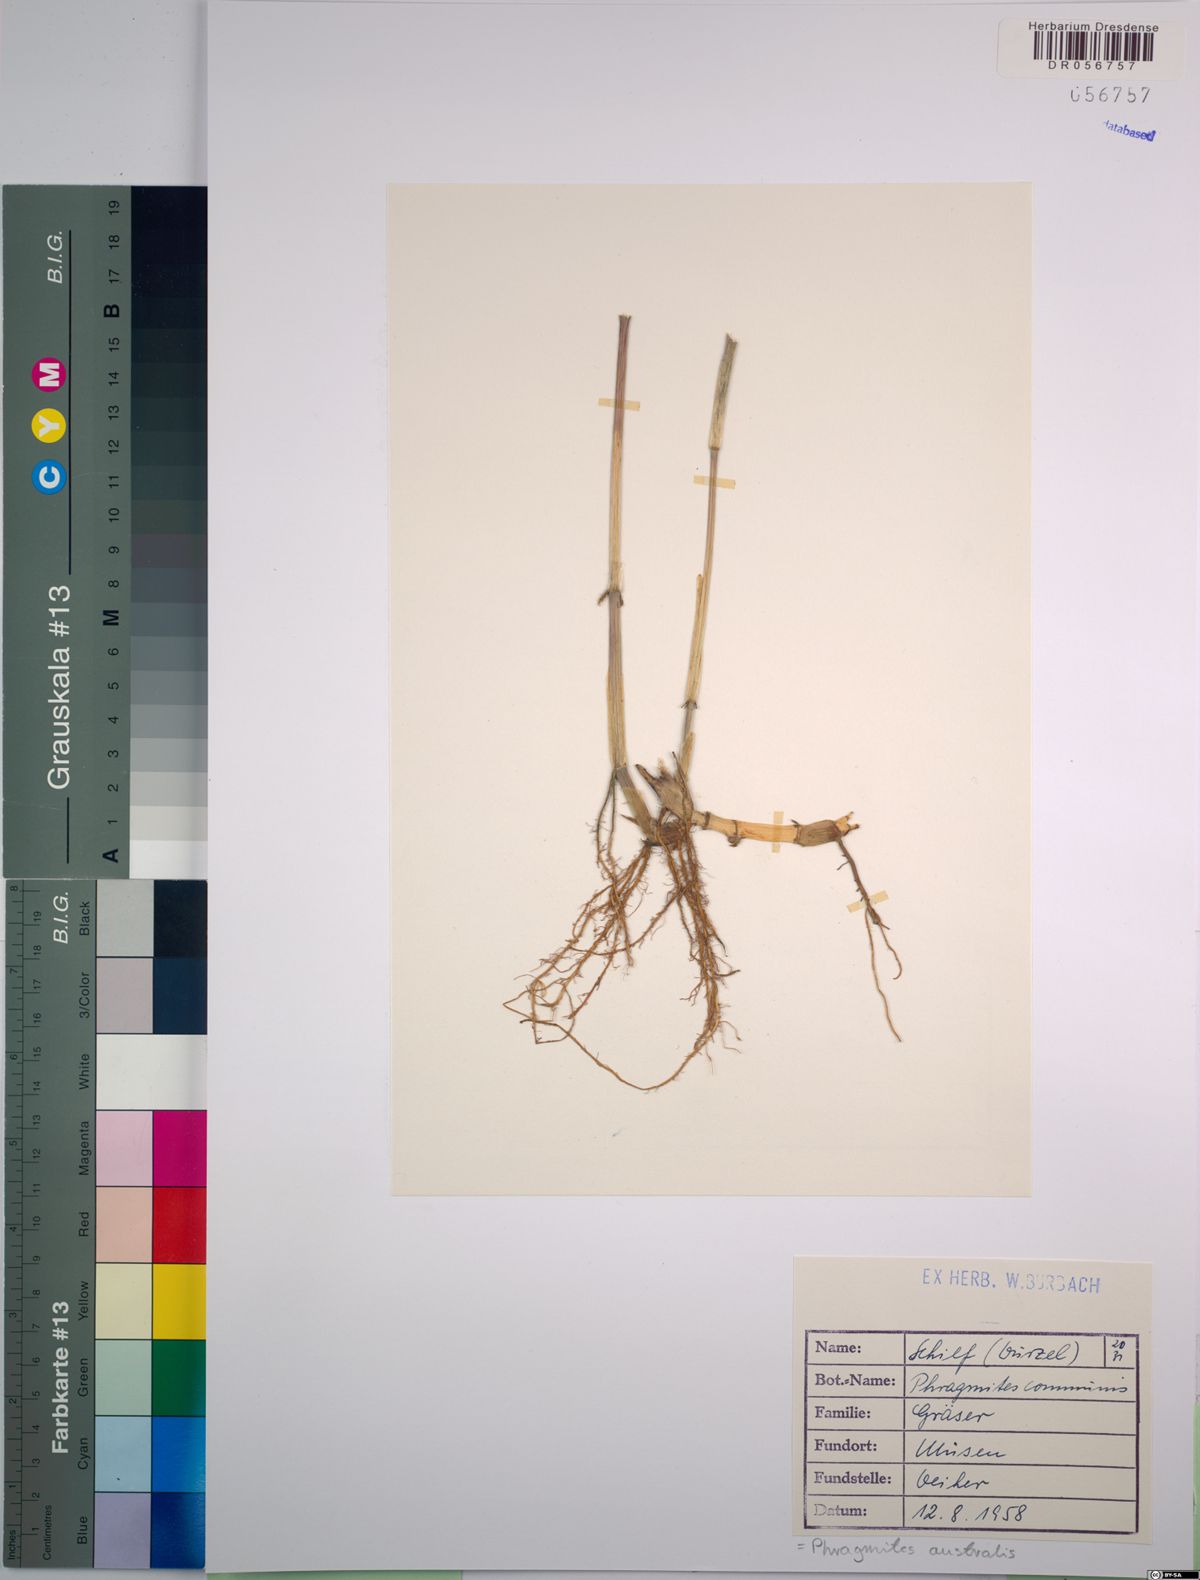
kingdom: Plantae
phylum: Tracheophyta
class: Liliopsida
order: Poales
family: Poaceae
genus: Phragmites
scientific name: Phragmites australis
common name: Common reed
